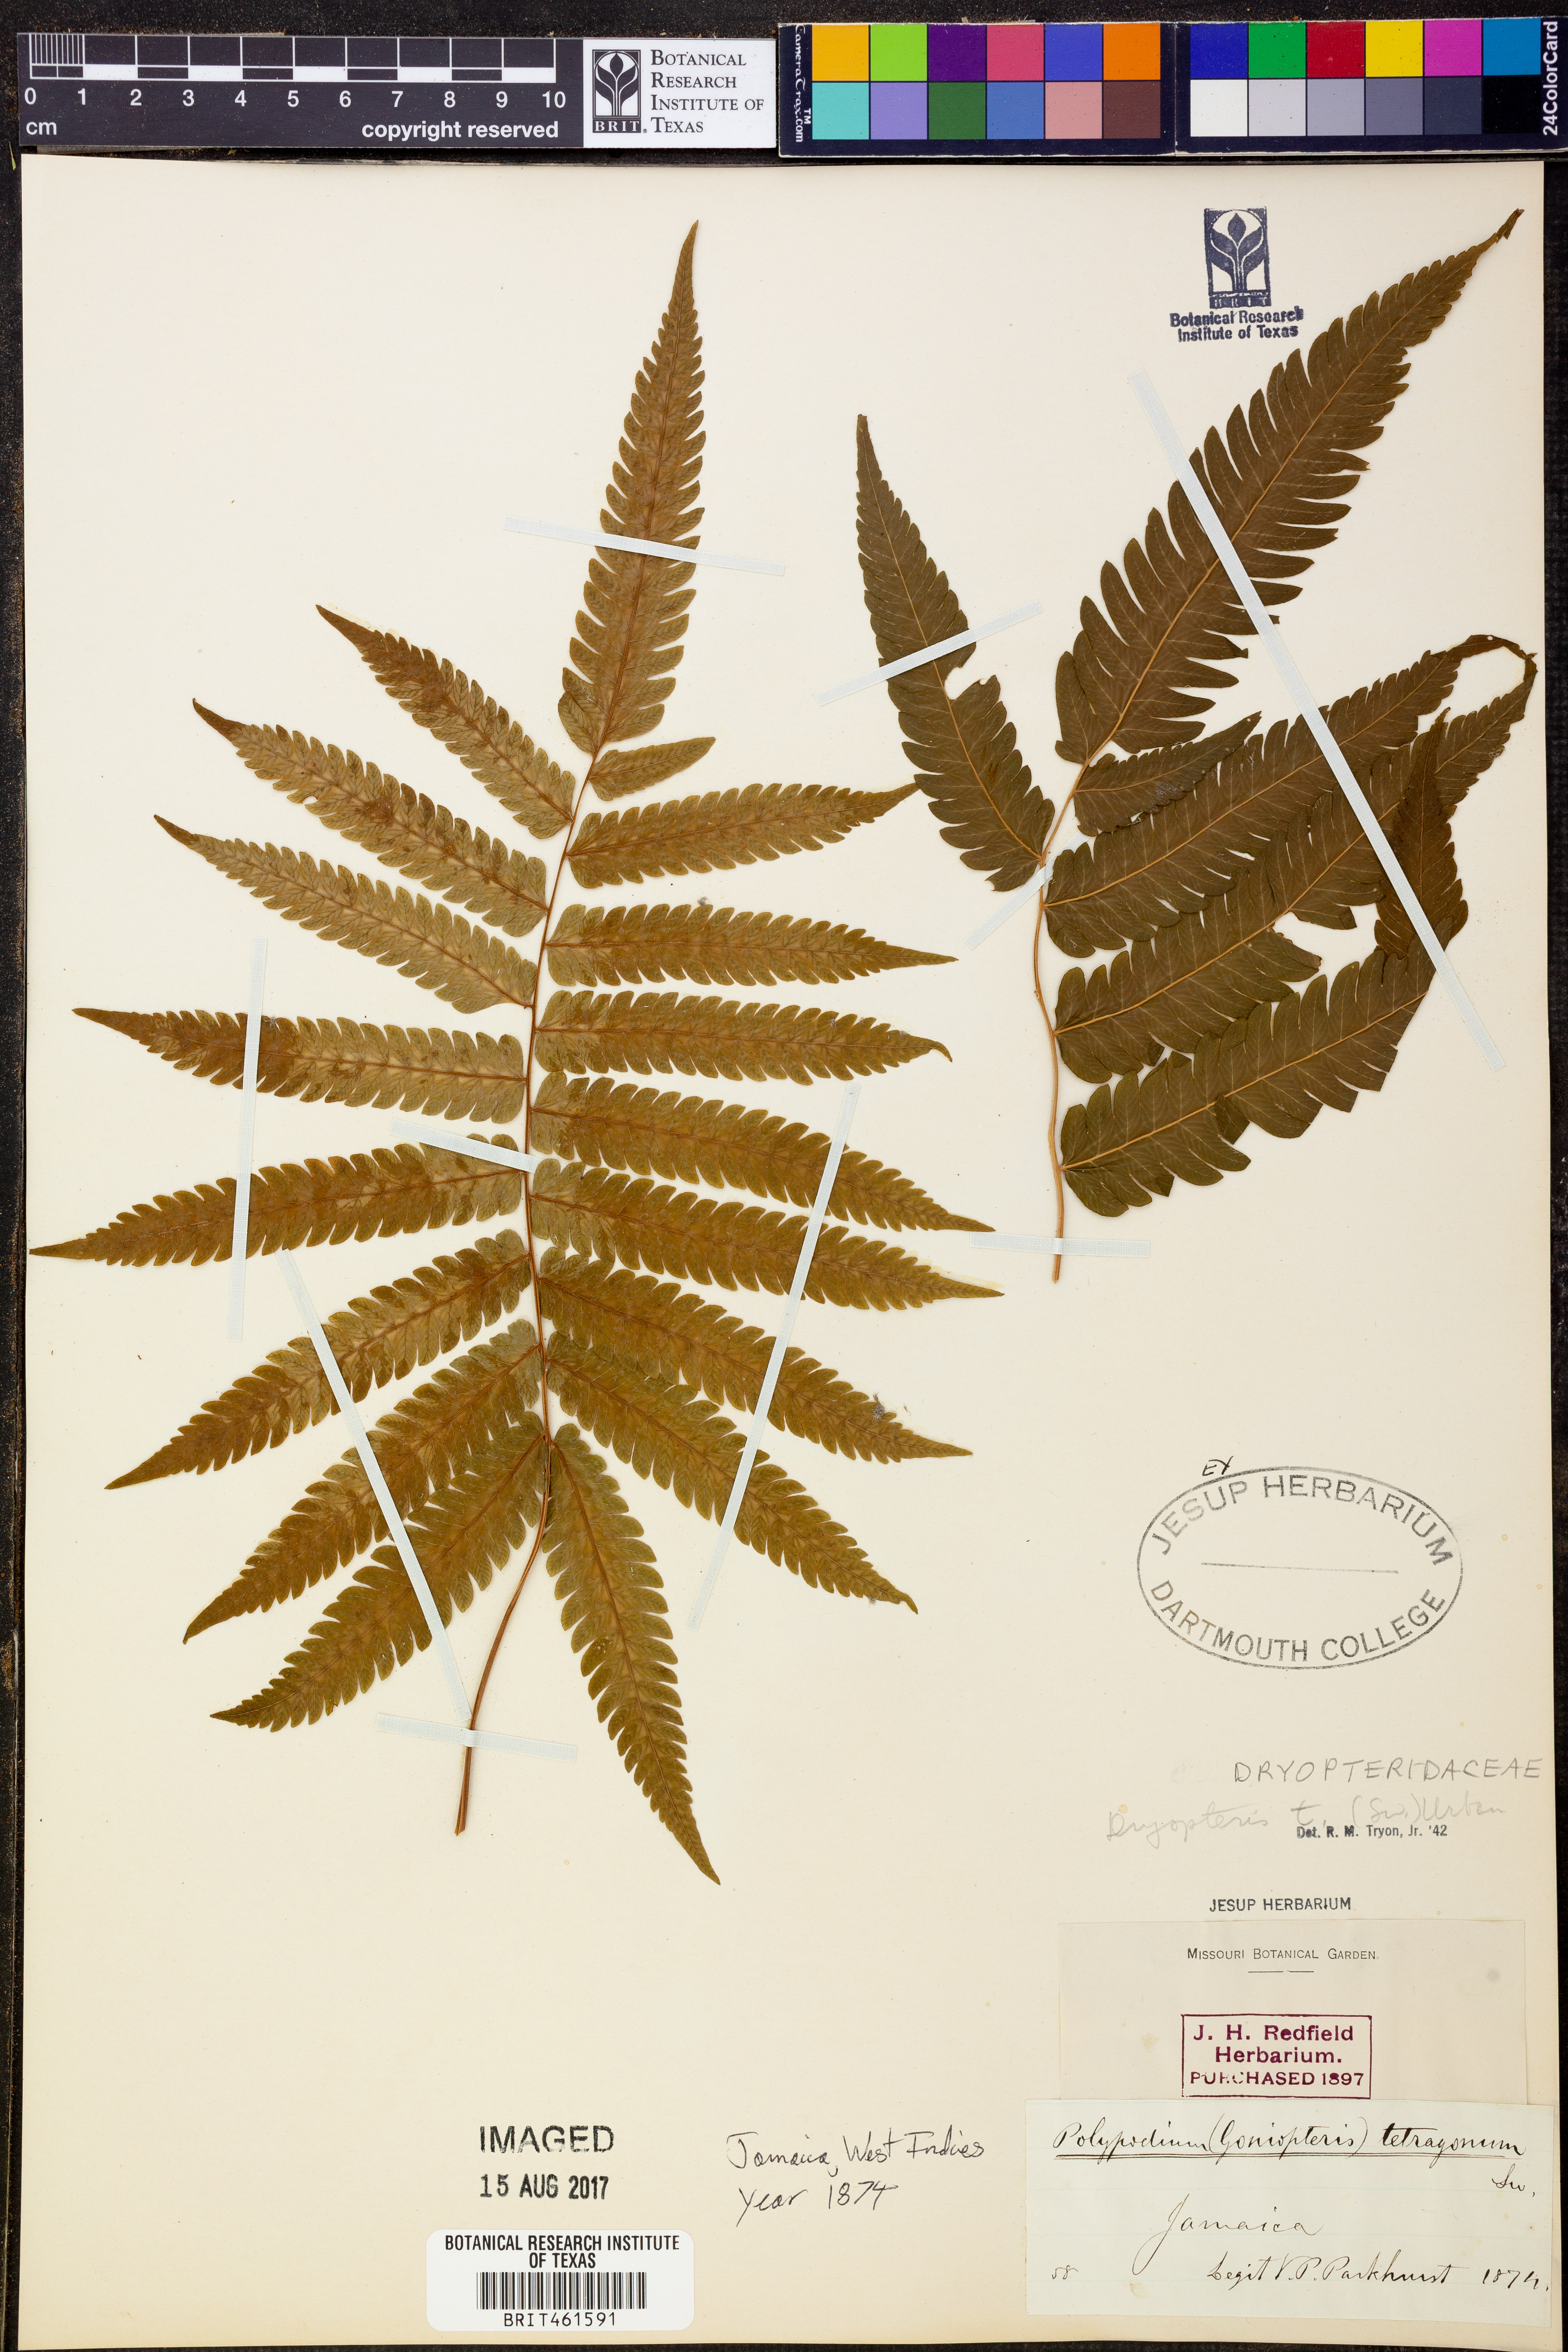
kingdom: Plantae
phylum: Tracheophyta
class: Polypodiopsida
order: Polypodiales
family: Thelypteridaceae
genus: Goniopteris
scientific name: Goniopteris tetragona
